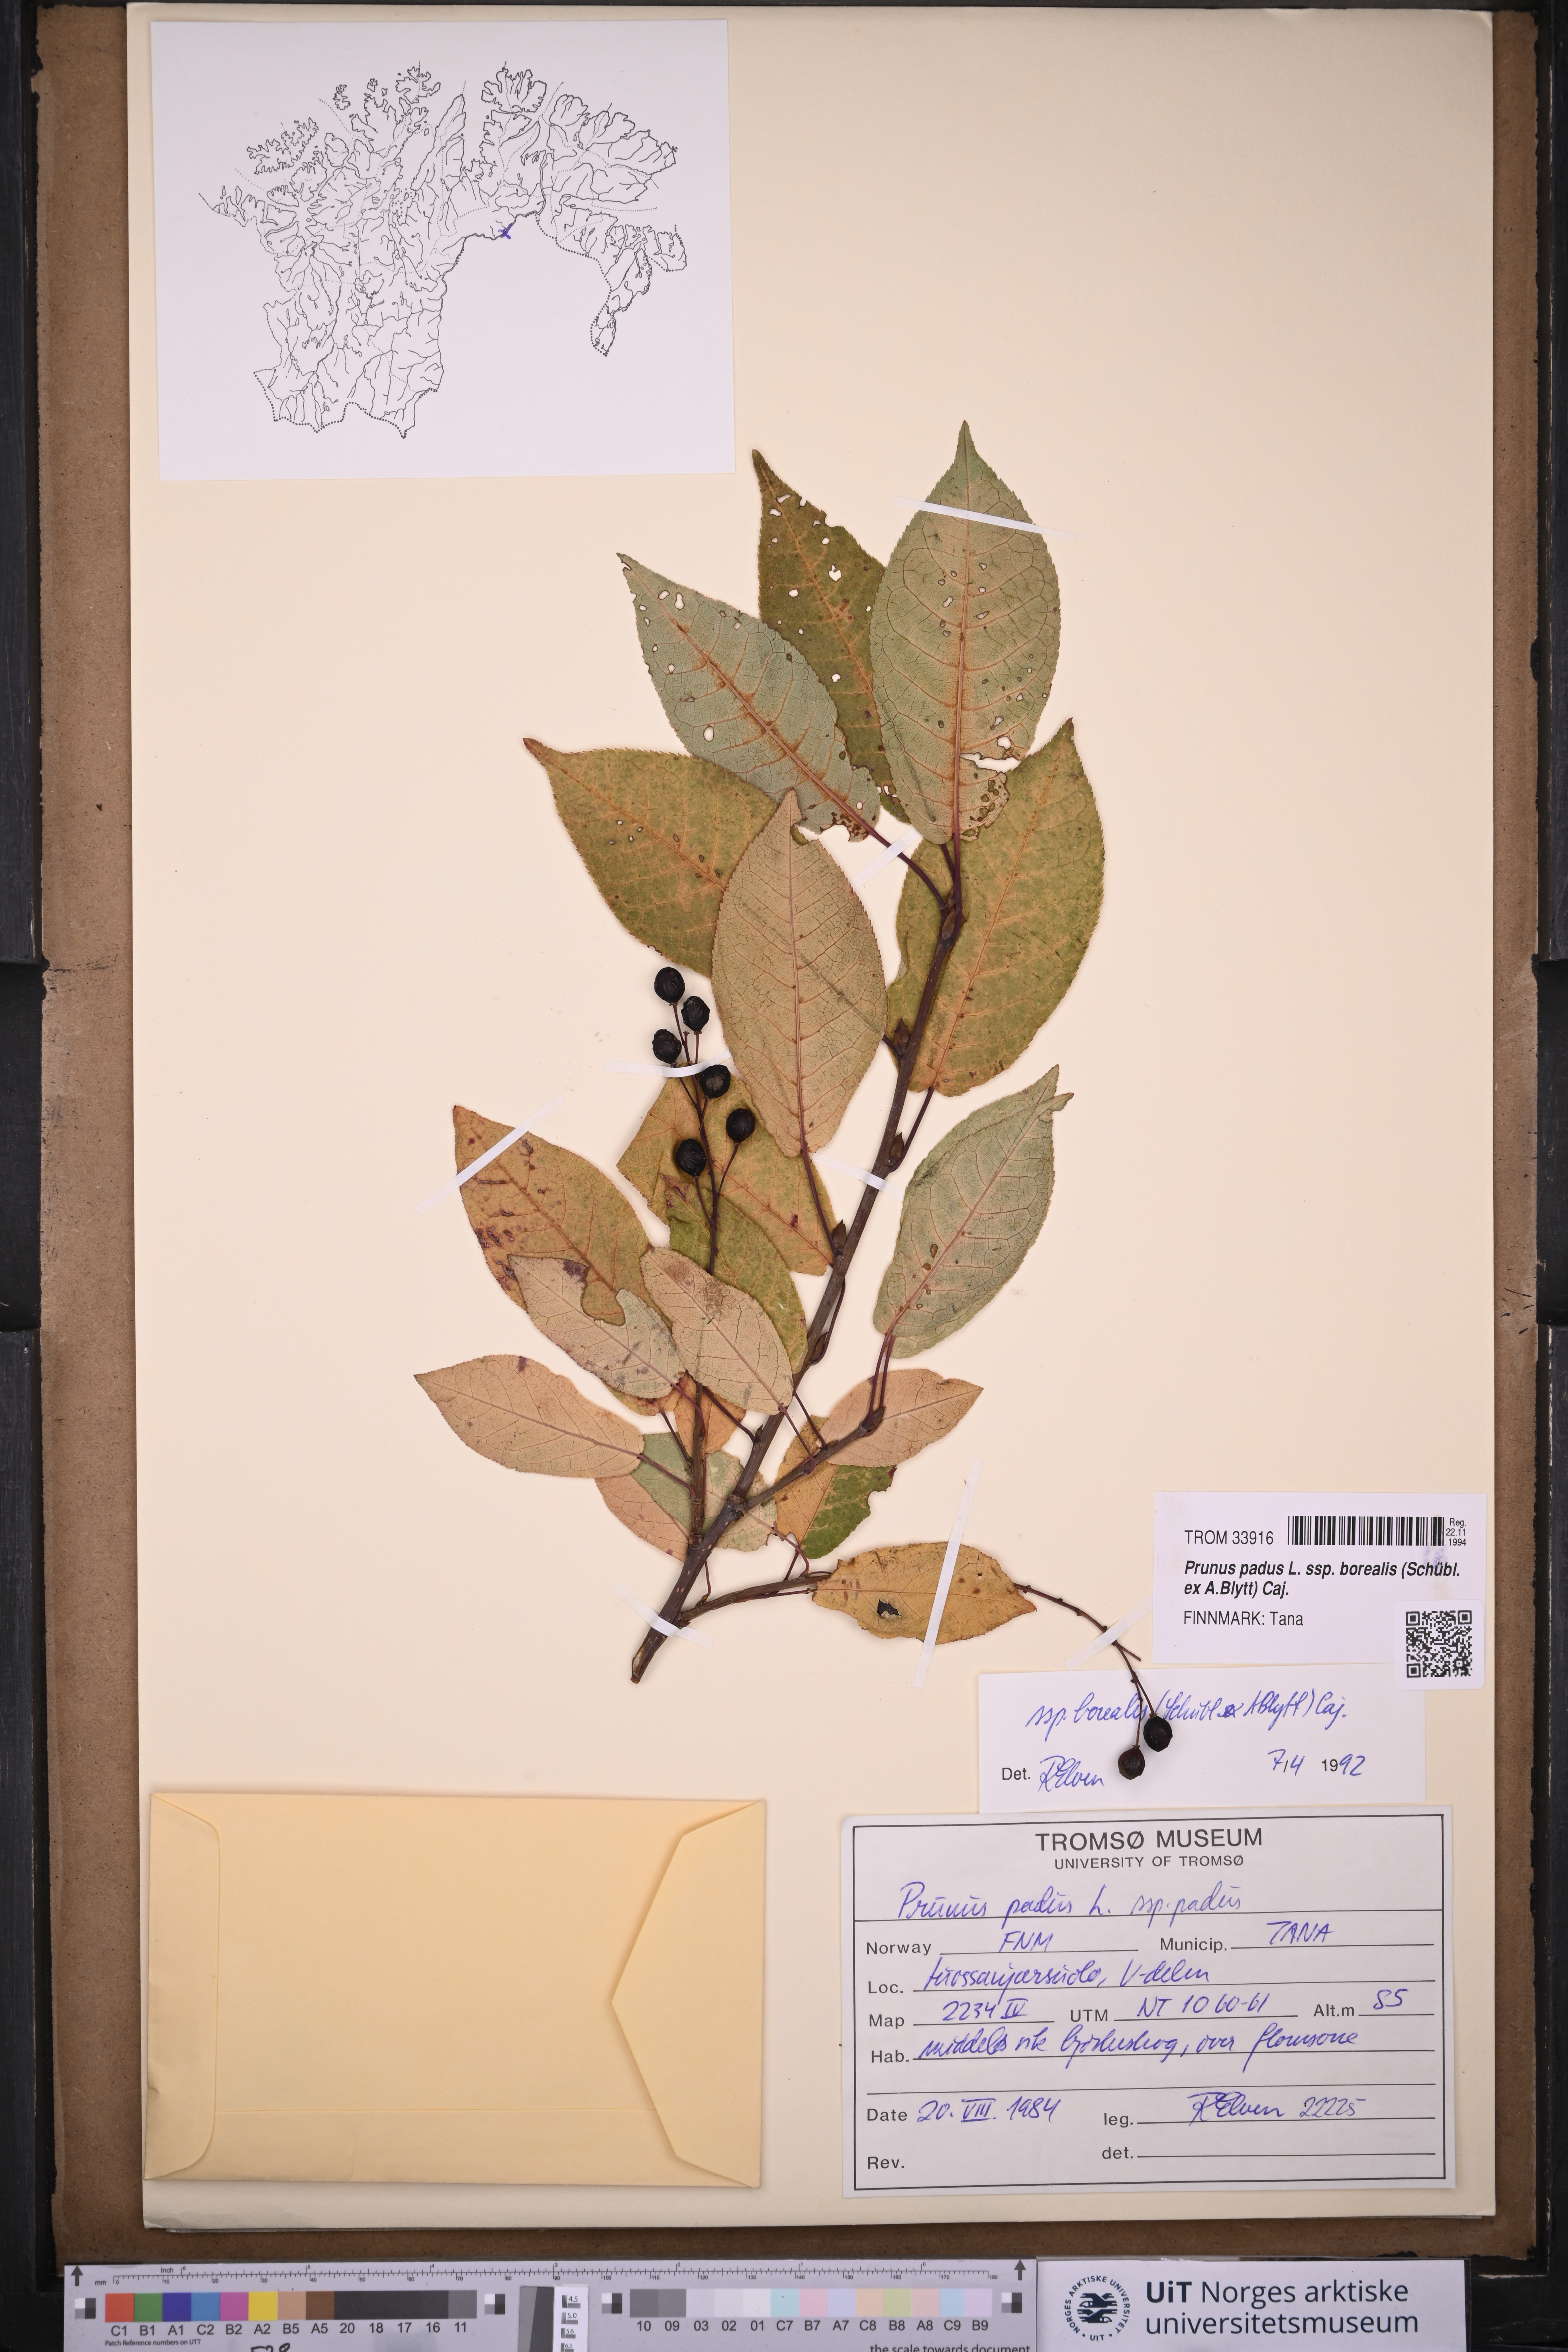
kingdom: Plantae
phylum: Tracheophyta
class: Magnoliopsida
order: Rosales
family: Rosaceae
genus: Prunus
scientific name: Prunus padus
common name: Bird cherry
